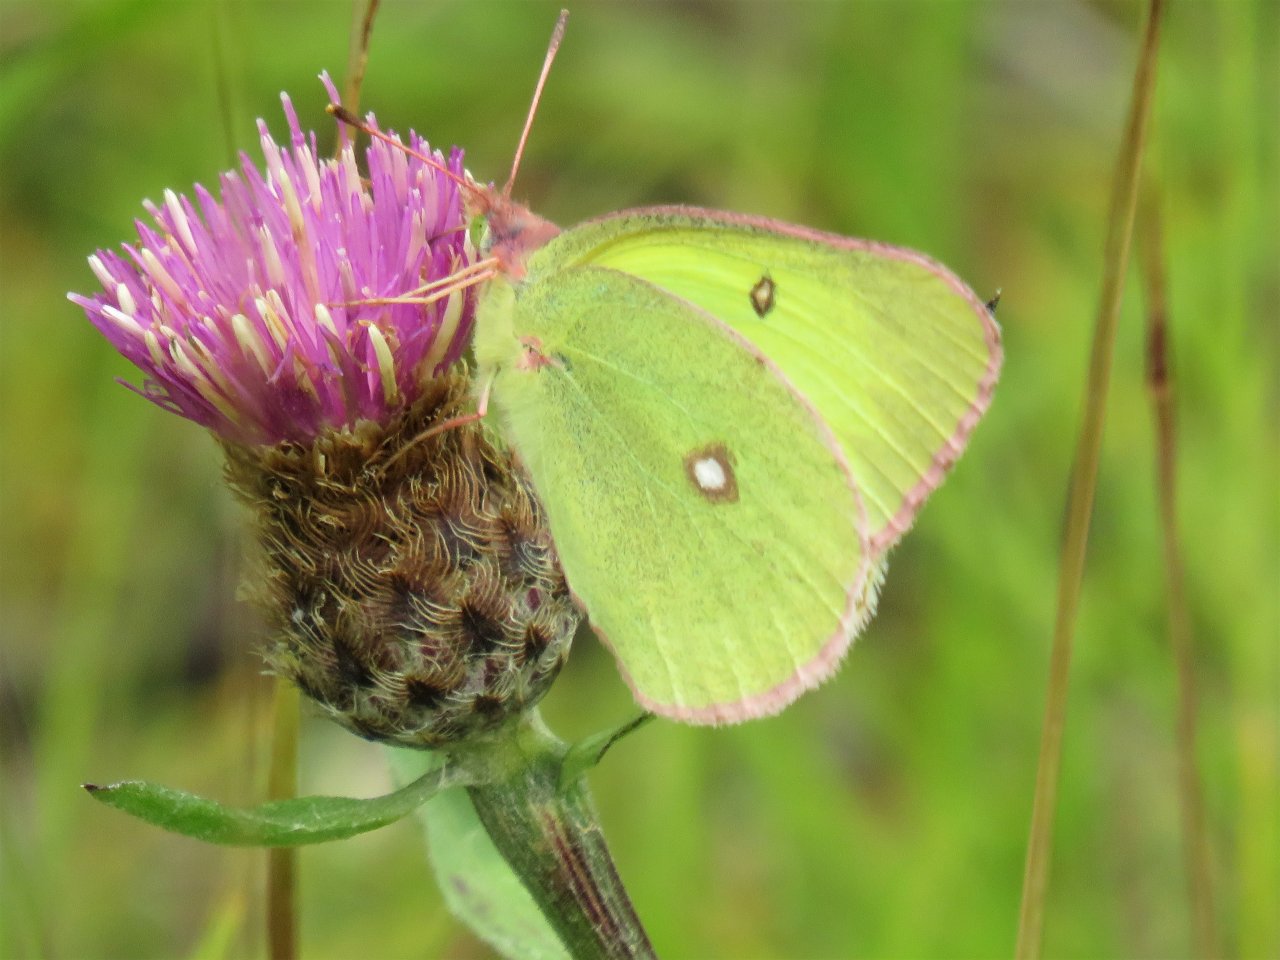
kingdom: Animalia
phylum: Arthropoda
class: Insecta
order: Lepidoptera
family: Pieridae
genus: Colias
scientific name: Colias interior
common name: Pink-edged Sulphur
